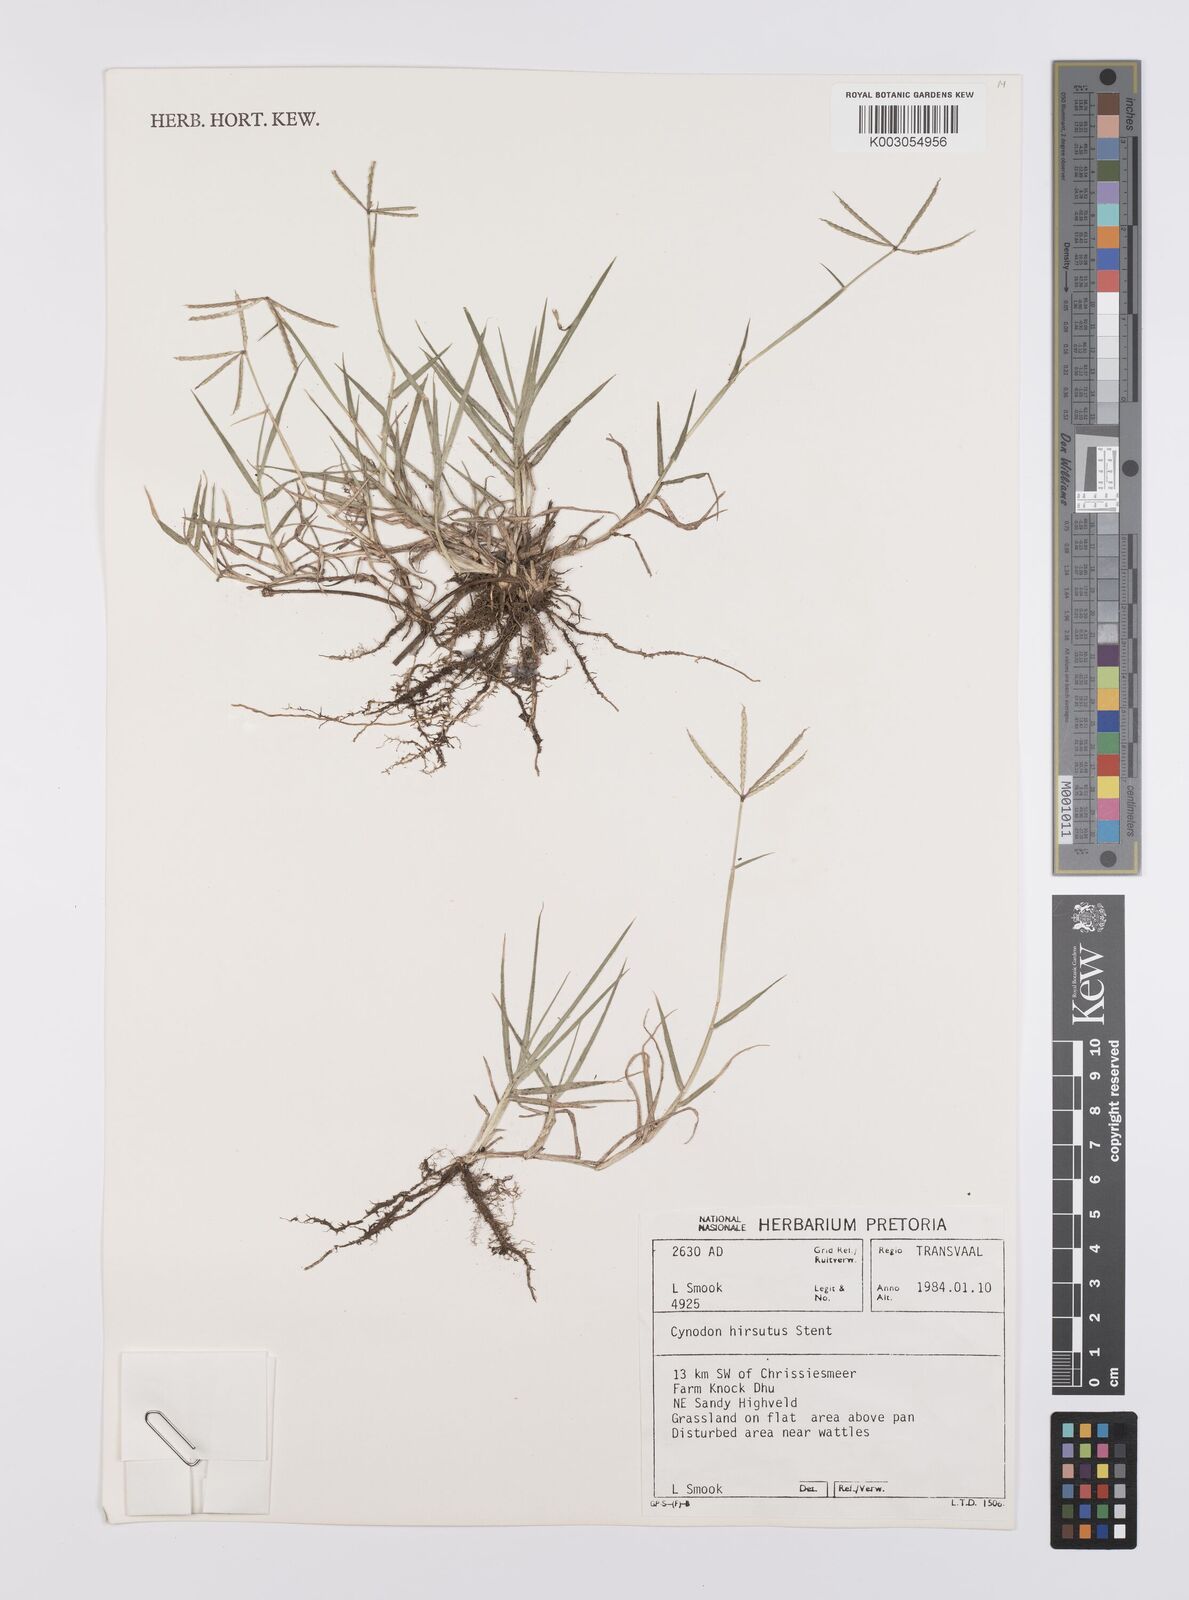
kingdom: Plantae
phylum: Tracheophyta
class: Liliopsida
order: Poales
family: Poaceae
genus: Cynodon
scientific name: Cynodon incompletus
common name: African bermuda-grass
